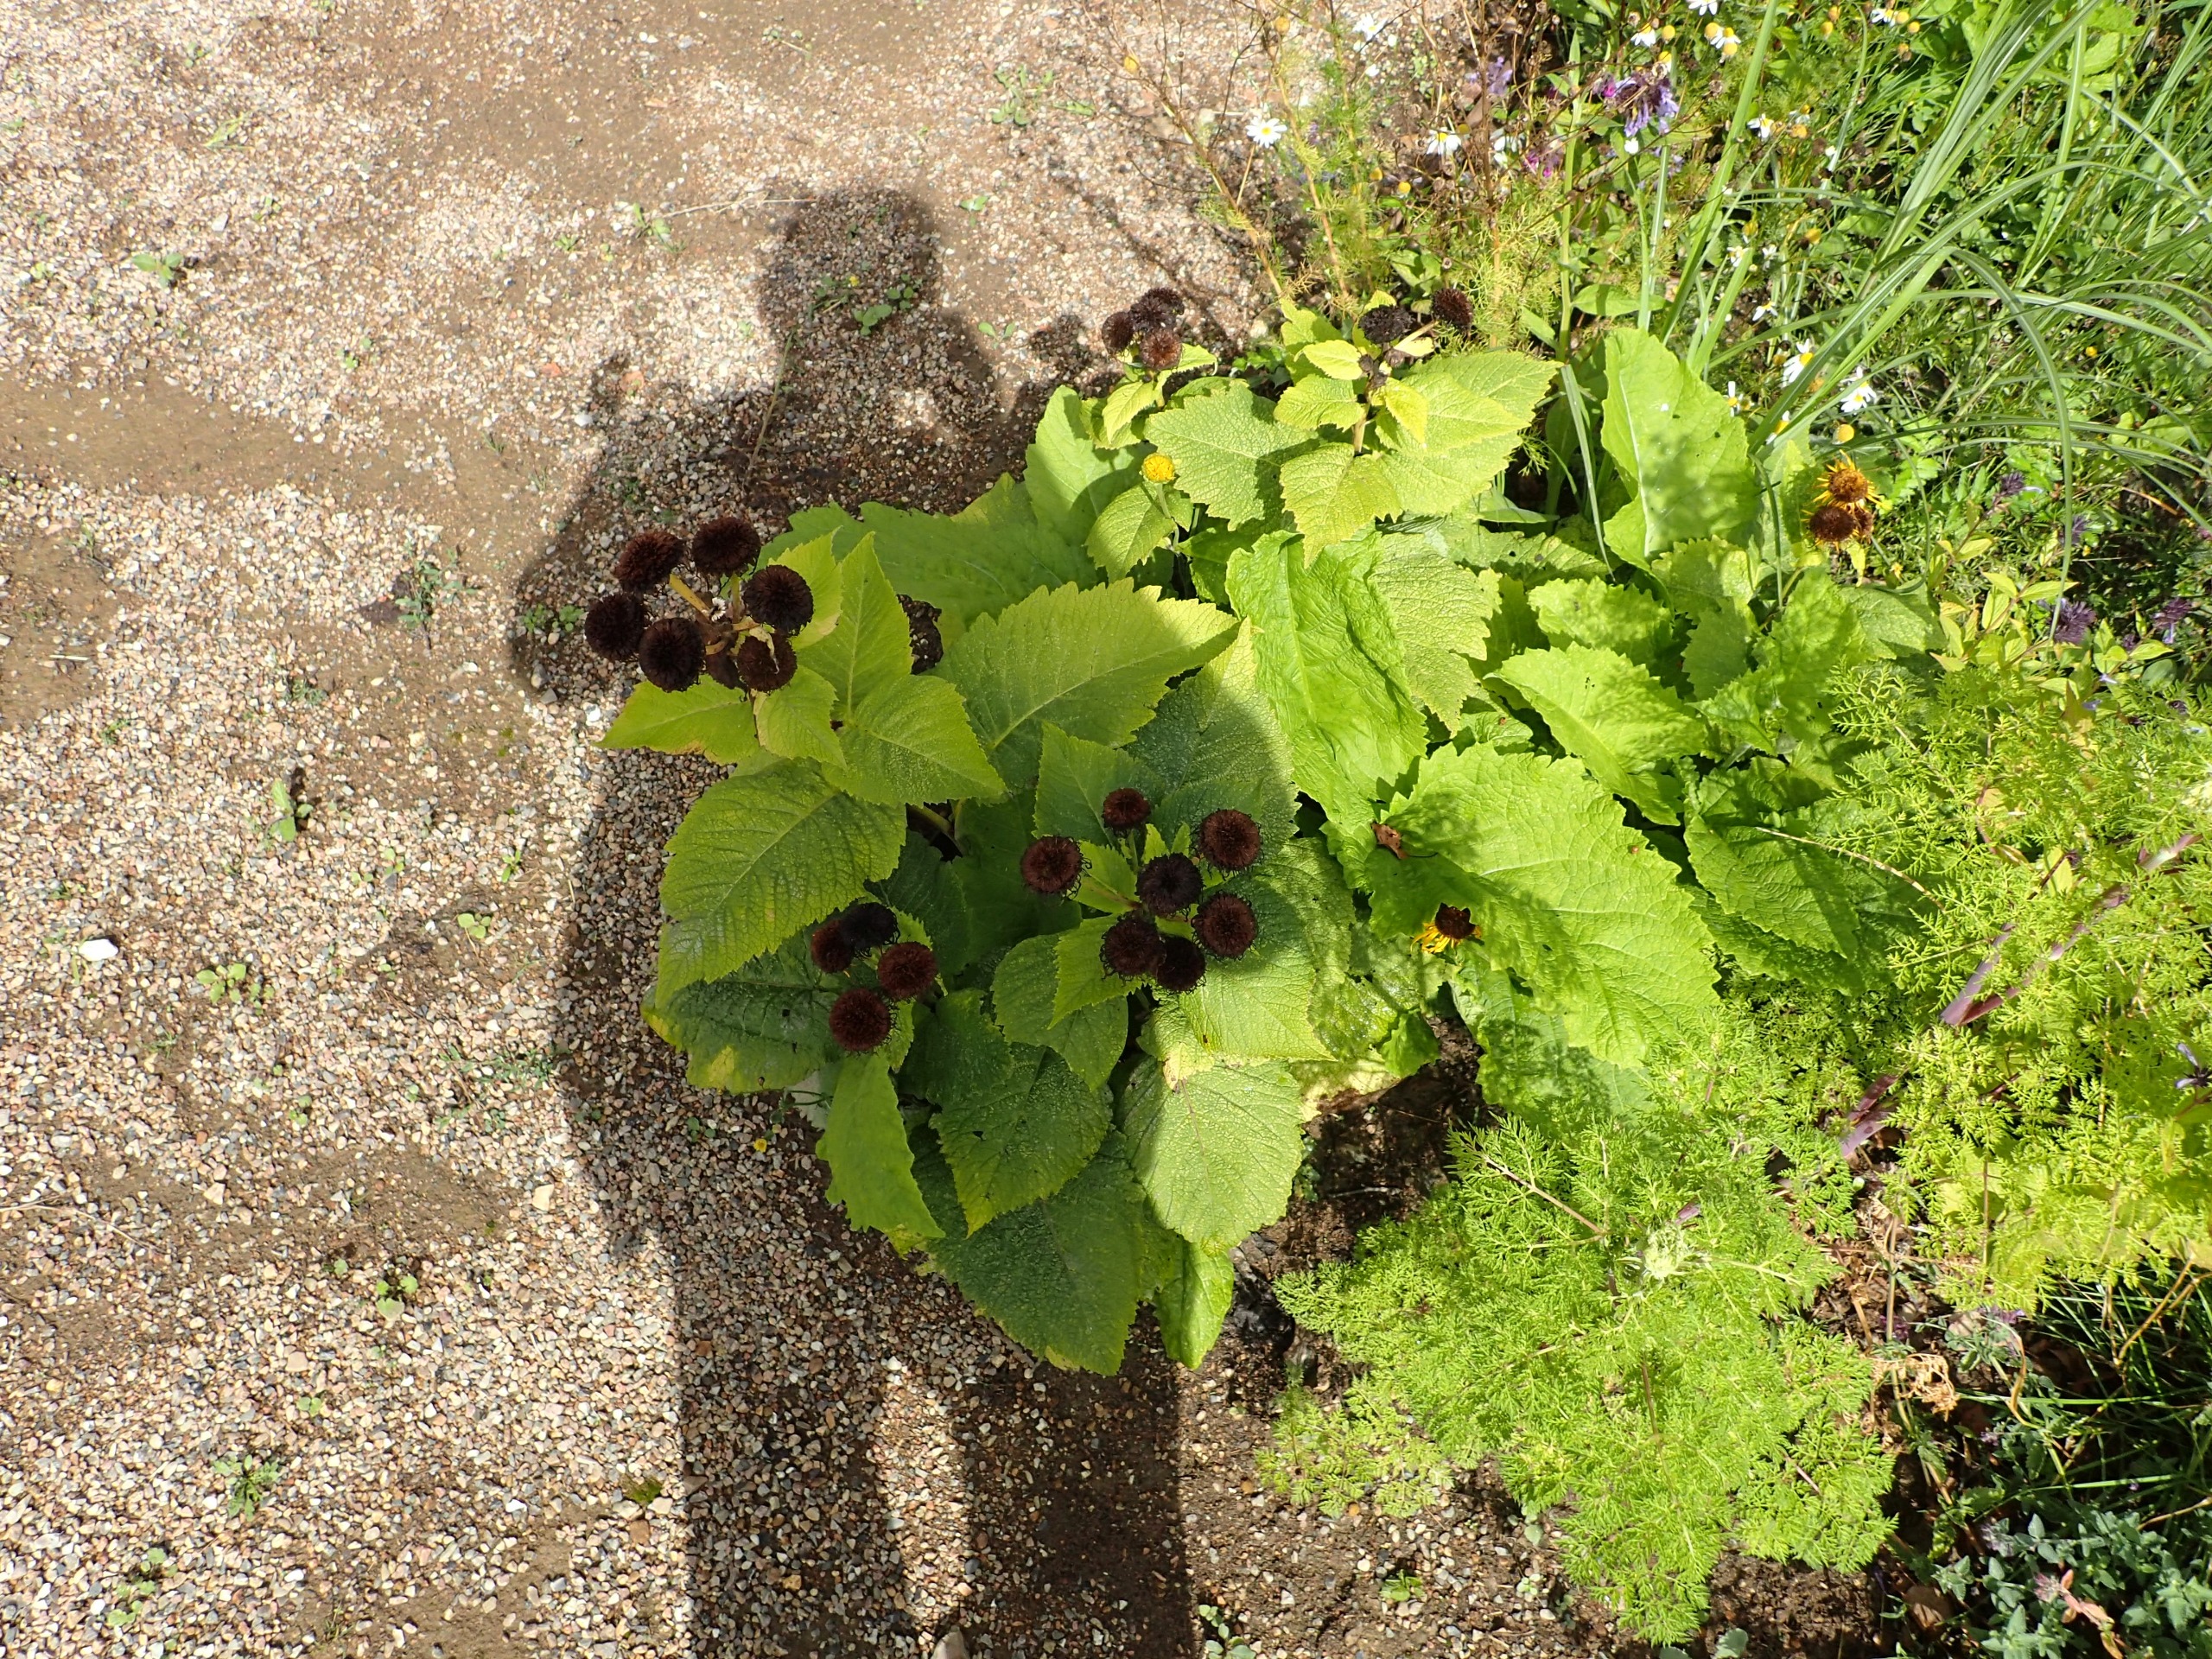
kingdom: Plantae
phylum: Tracheophyta
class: Magnoliopsida
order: Asterales
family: Asteraceae
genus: Telekia
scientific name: Telekia speciosa
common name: Tusindstråle
